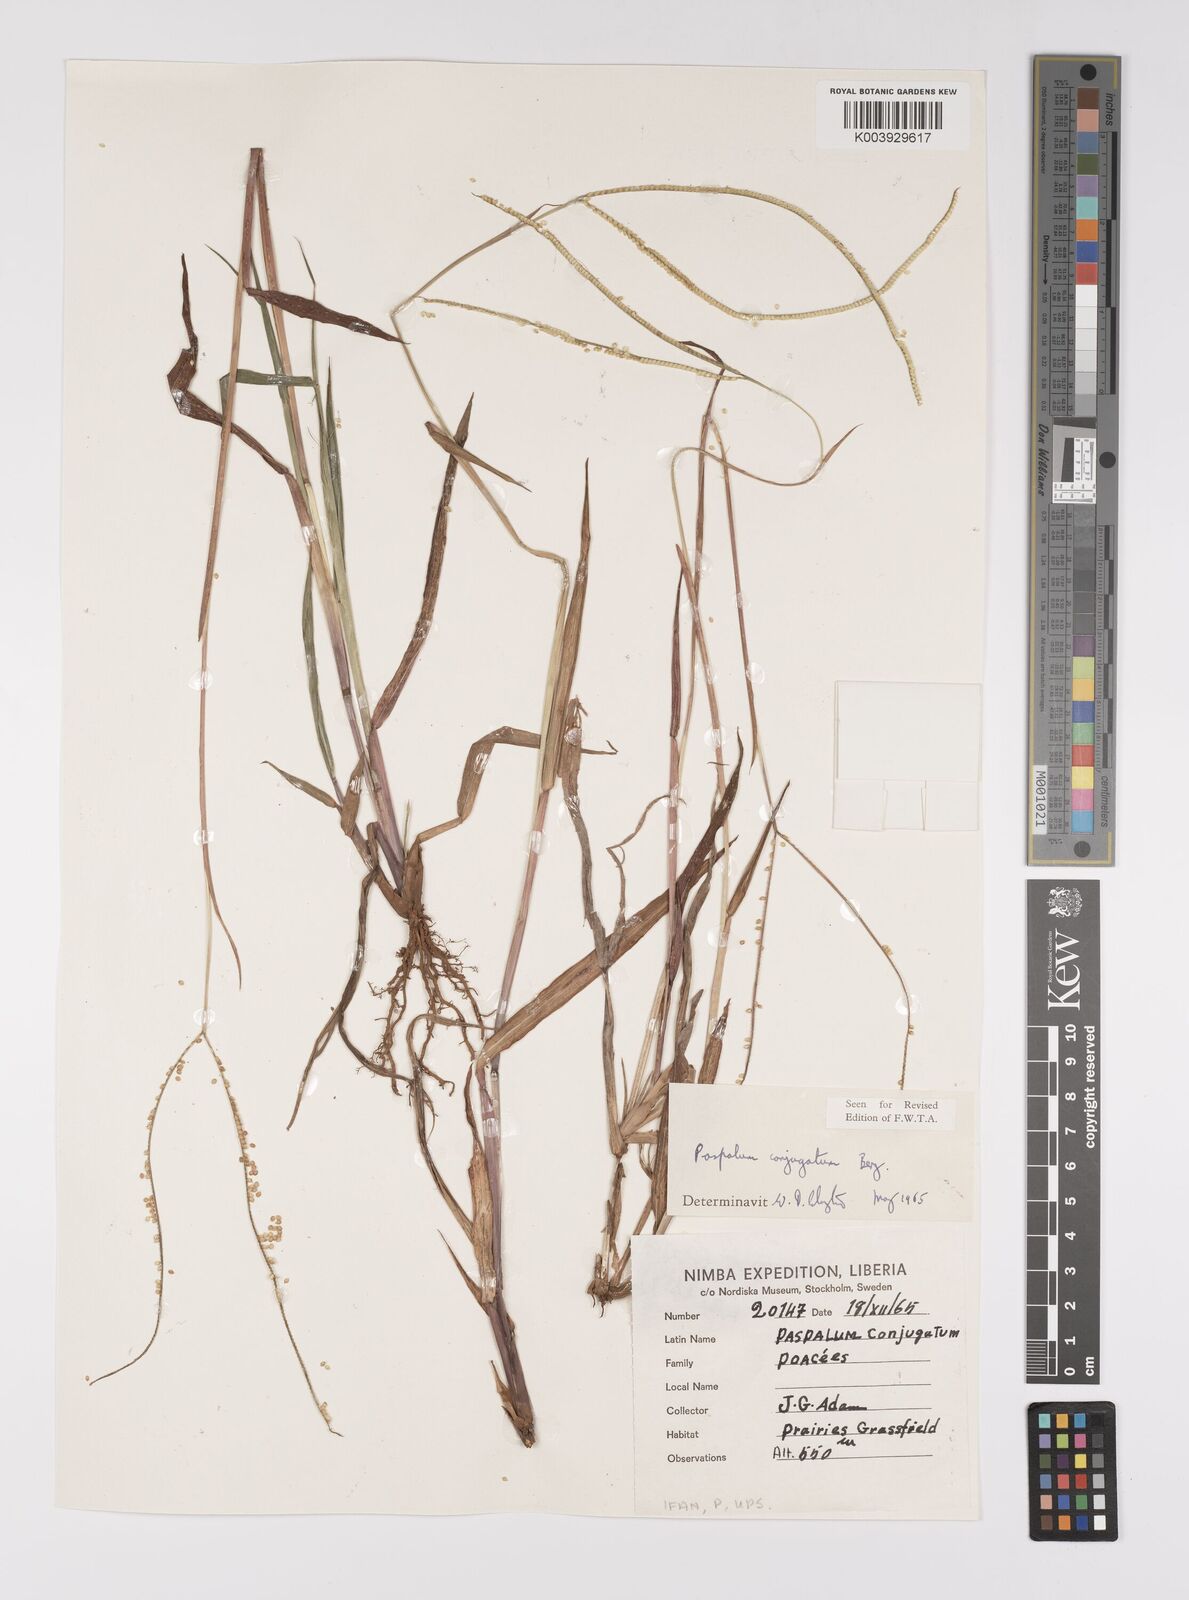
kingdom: Plantae
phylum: Tracheophyta
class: Liliopsida
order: Poales
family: Poaceae
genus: Paspalum
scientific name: Paspalum conjugatum
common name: Hilograss
